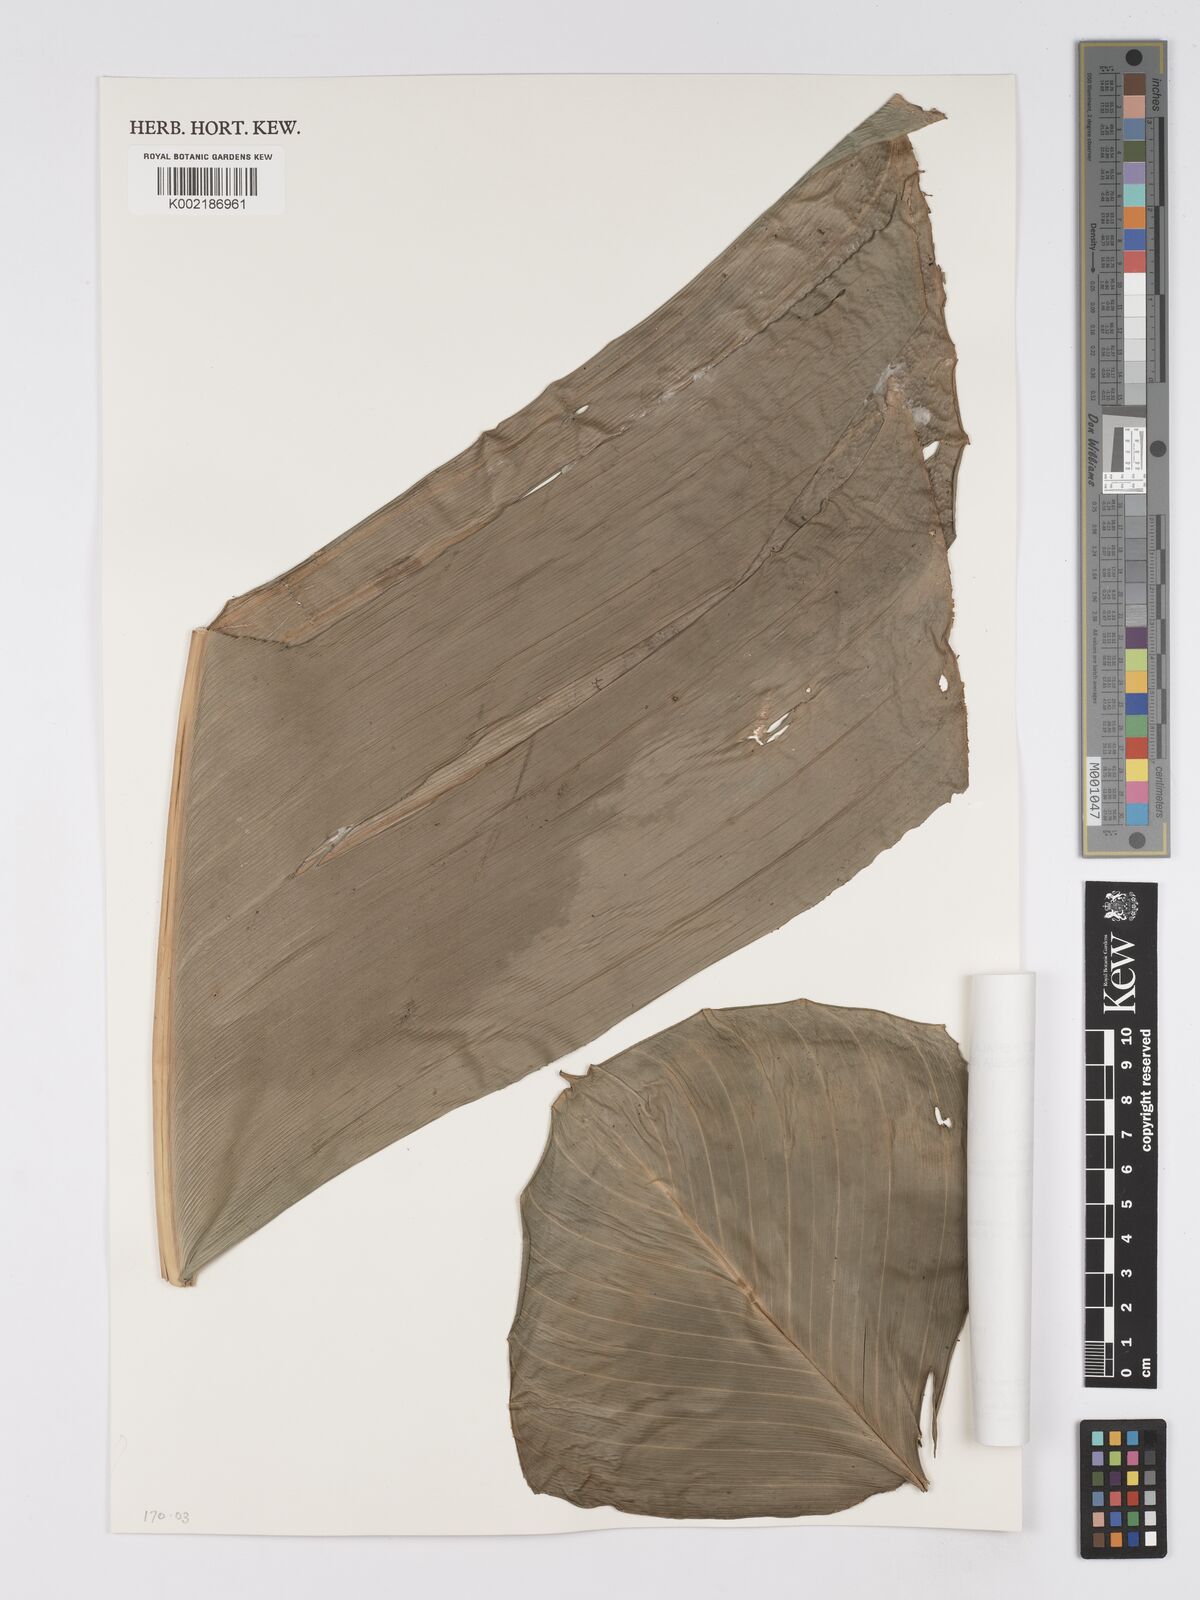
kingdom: Plantae
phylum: Tracheophyta
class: Liliopsida
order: Zingiberales
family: Marantaceae
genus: Phrynium
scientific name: Phrynium giganteum
